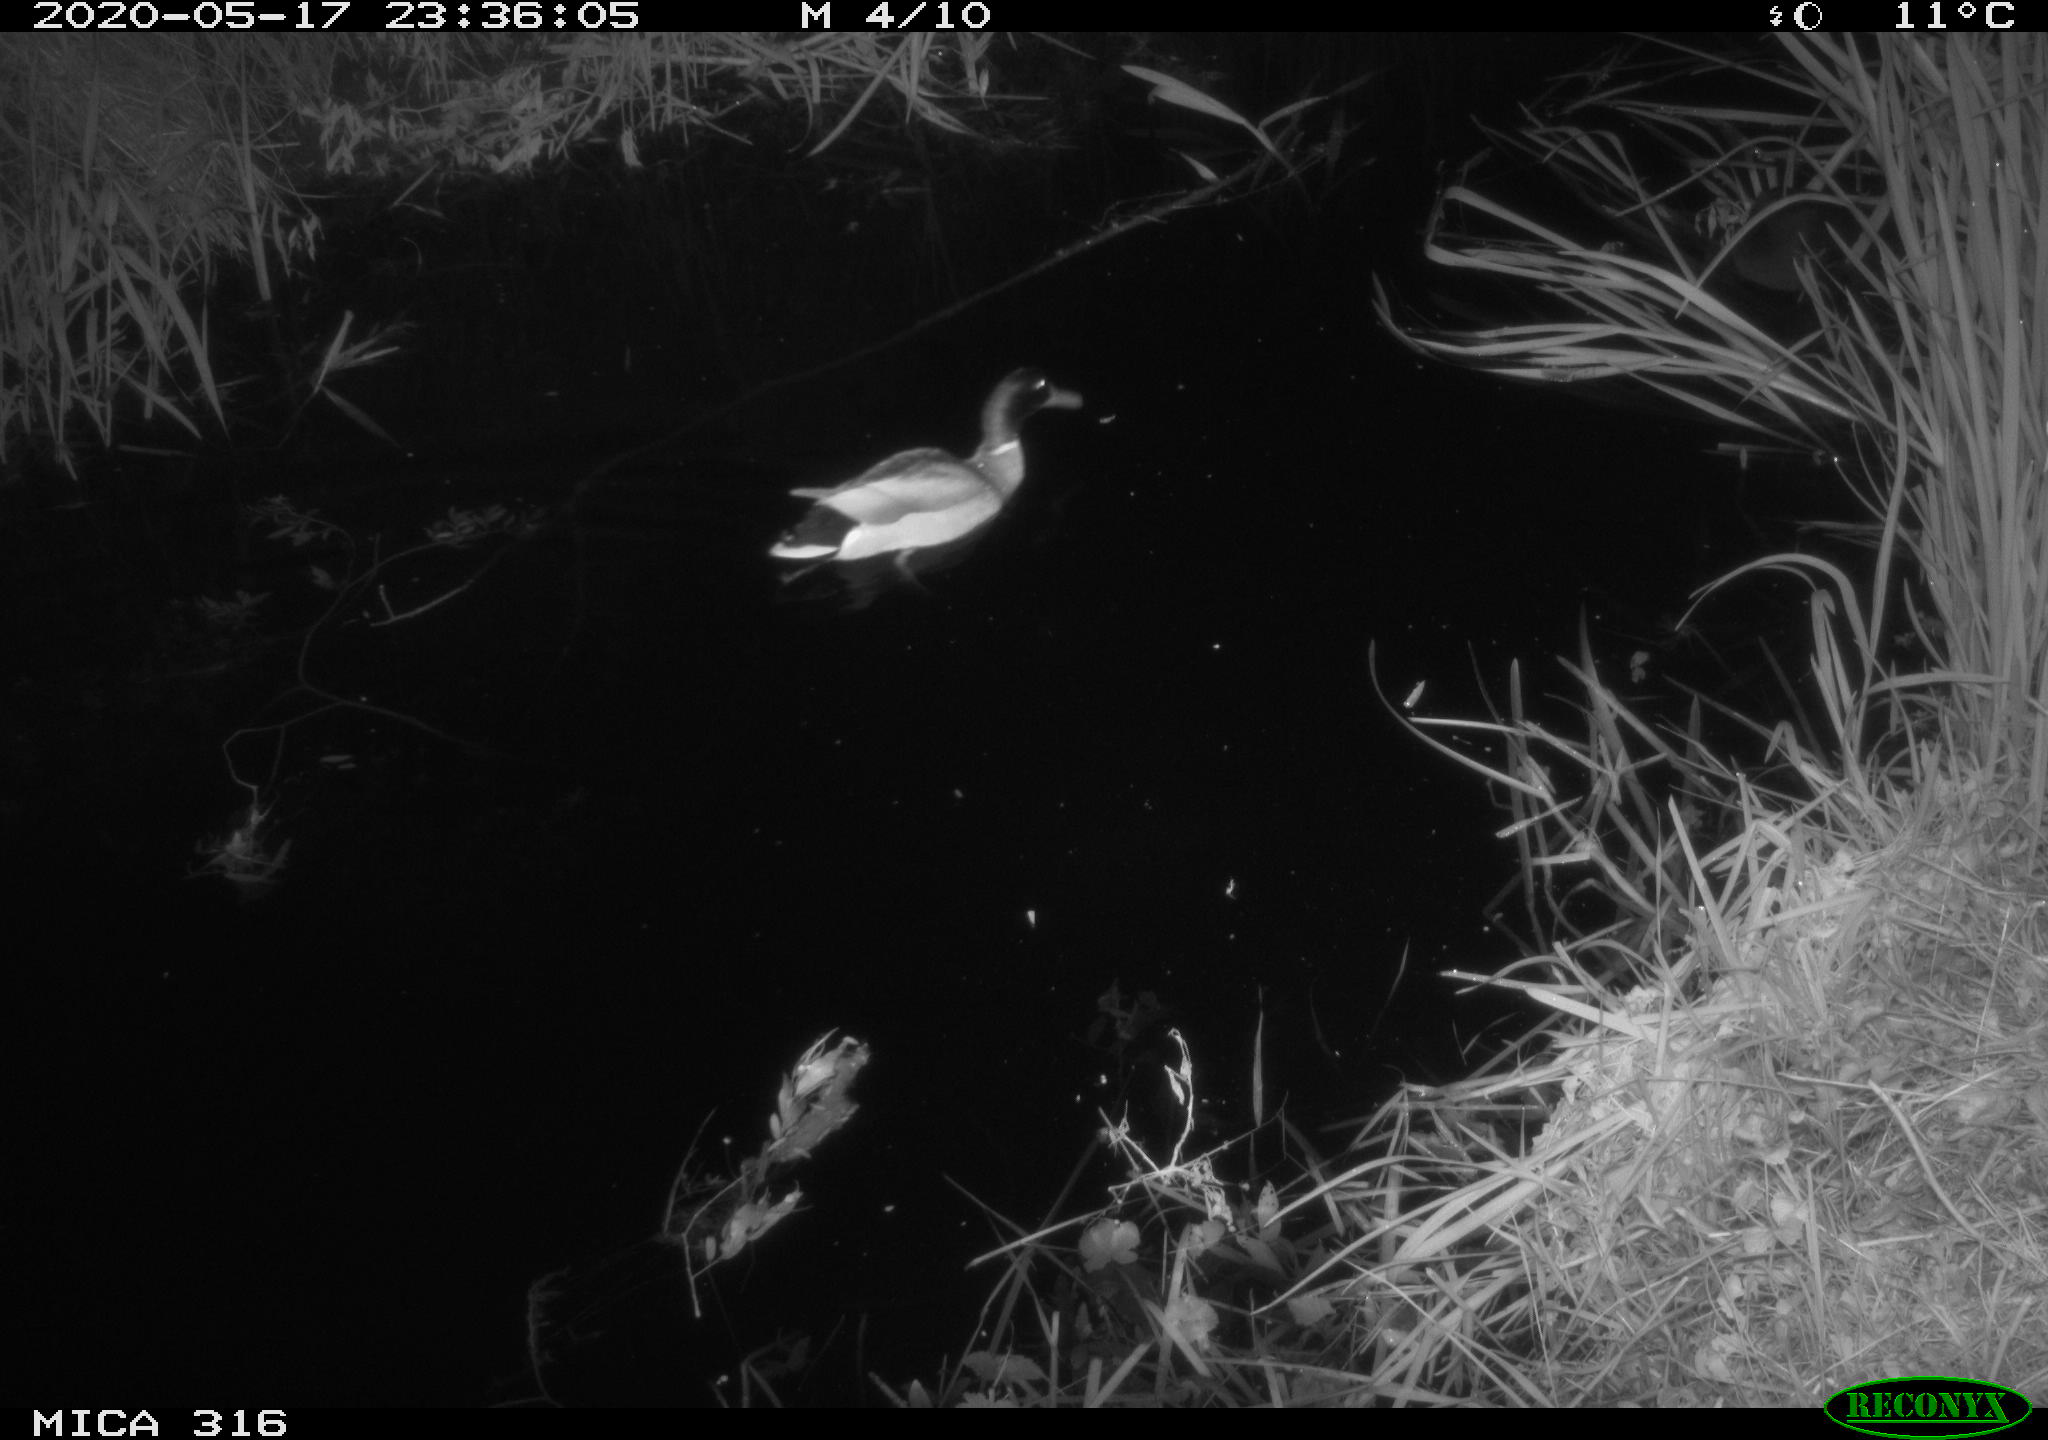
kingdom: Animalia
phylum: Chordata
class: Aves
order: Anseriformes
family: Anatidae
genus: Anas
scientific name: Anas platyrhynchos
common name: Mallard
